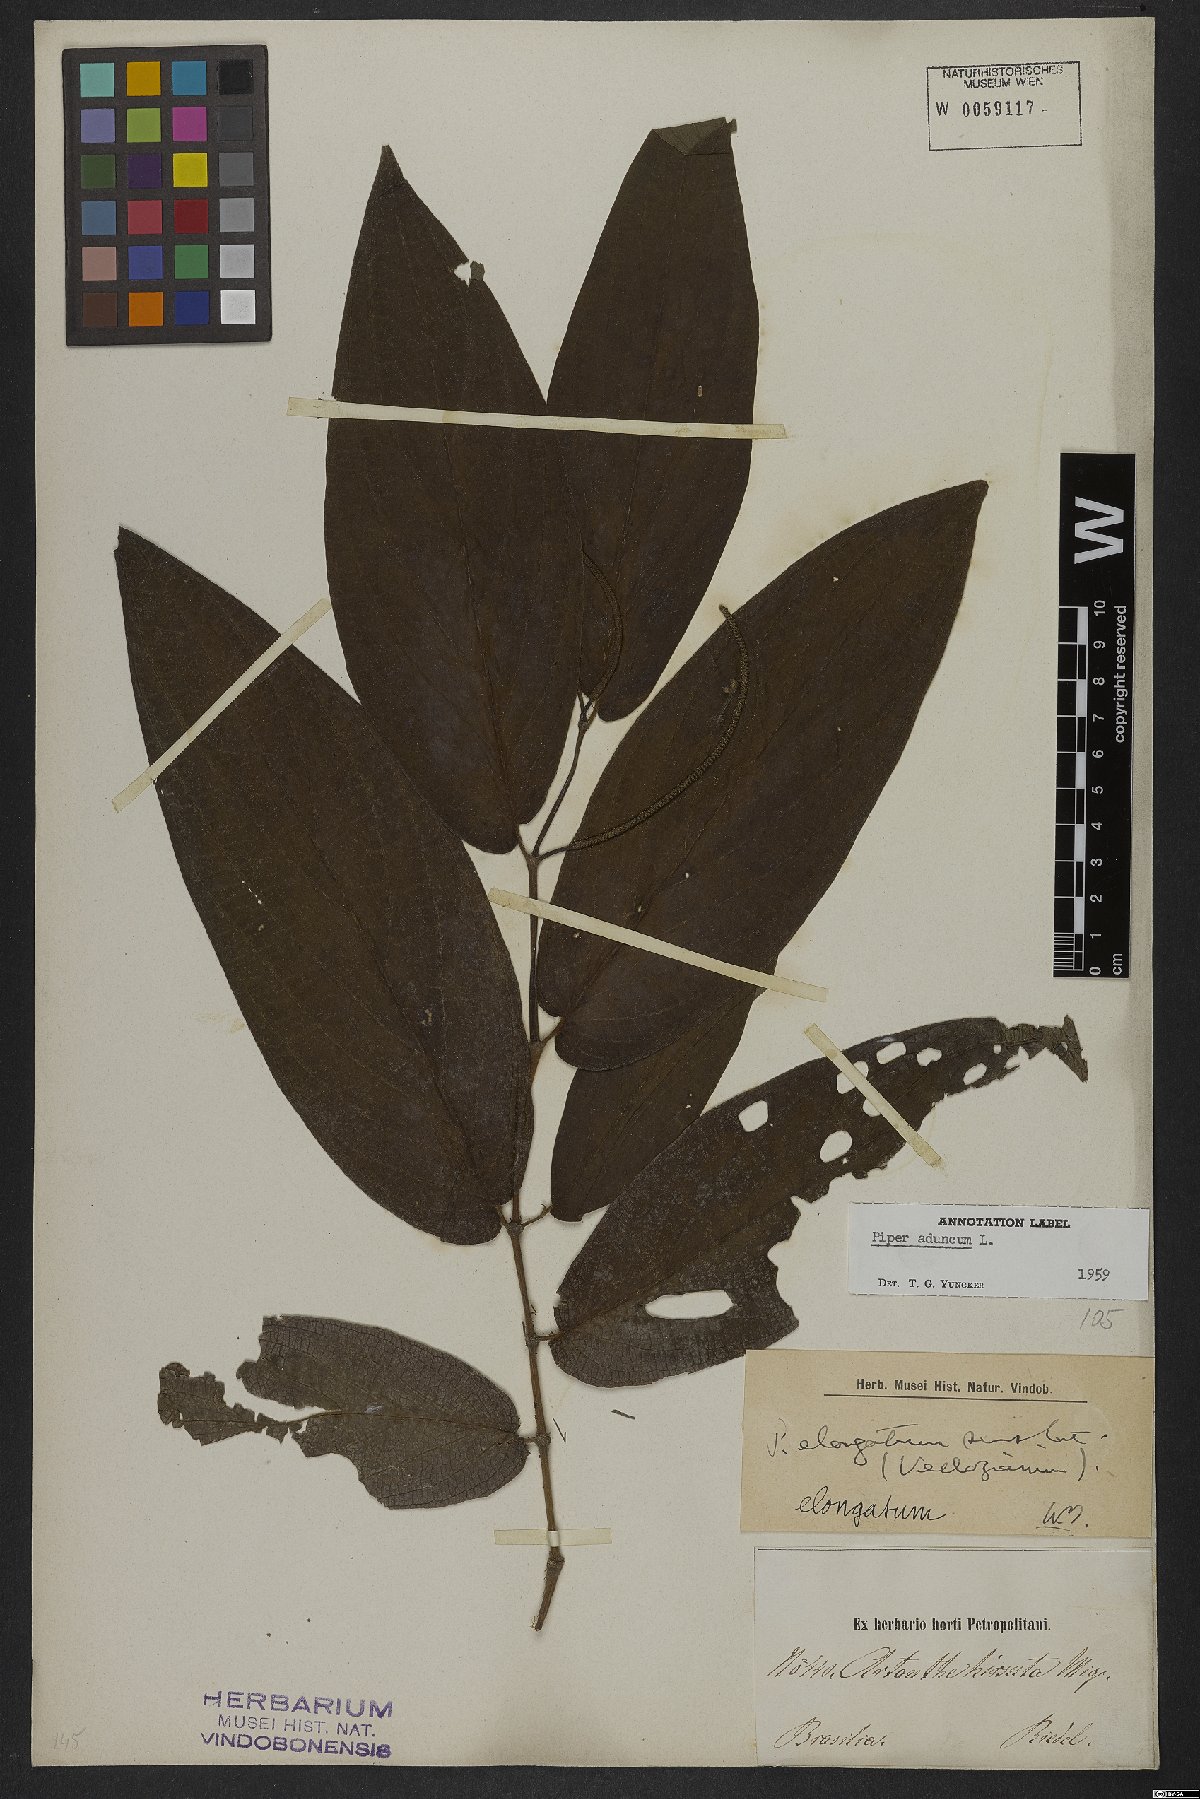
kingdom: Plantae
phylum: Tracheophyta
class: Magnoliopsida
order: Piperales
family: Piperaceae
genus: Piper
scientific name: Piper aduncum
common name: Spiked pepper
